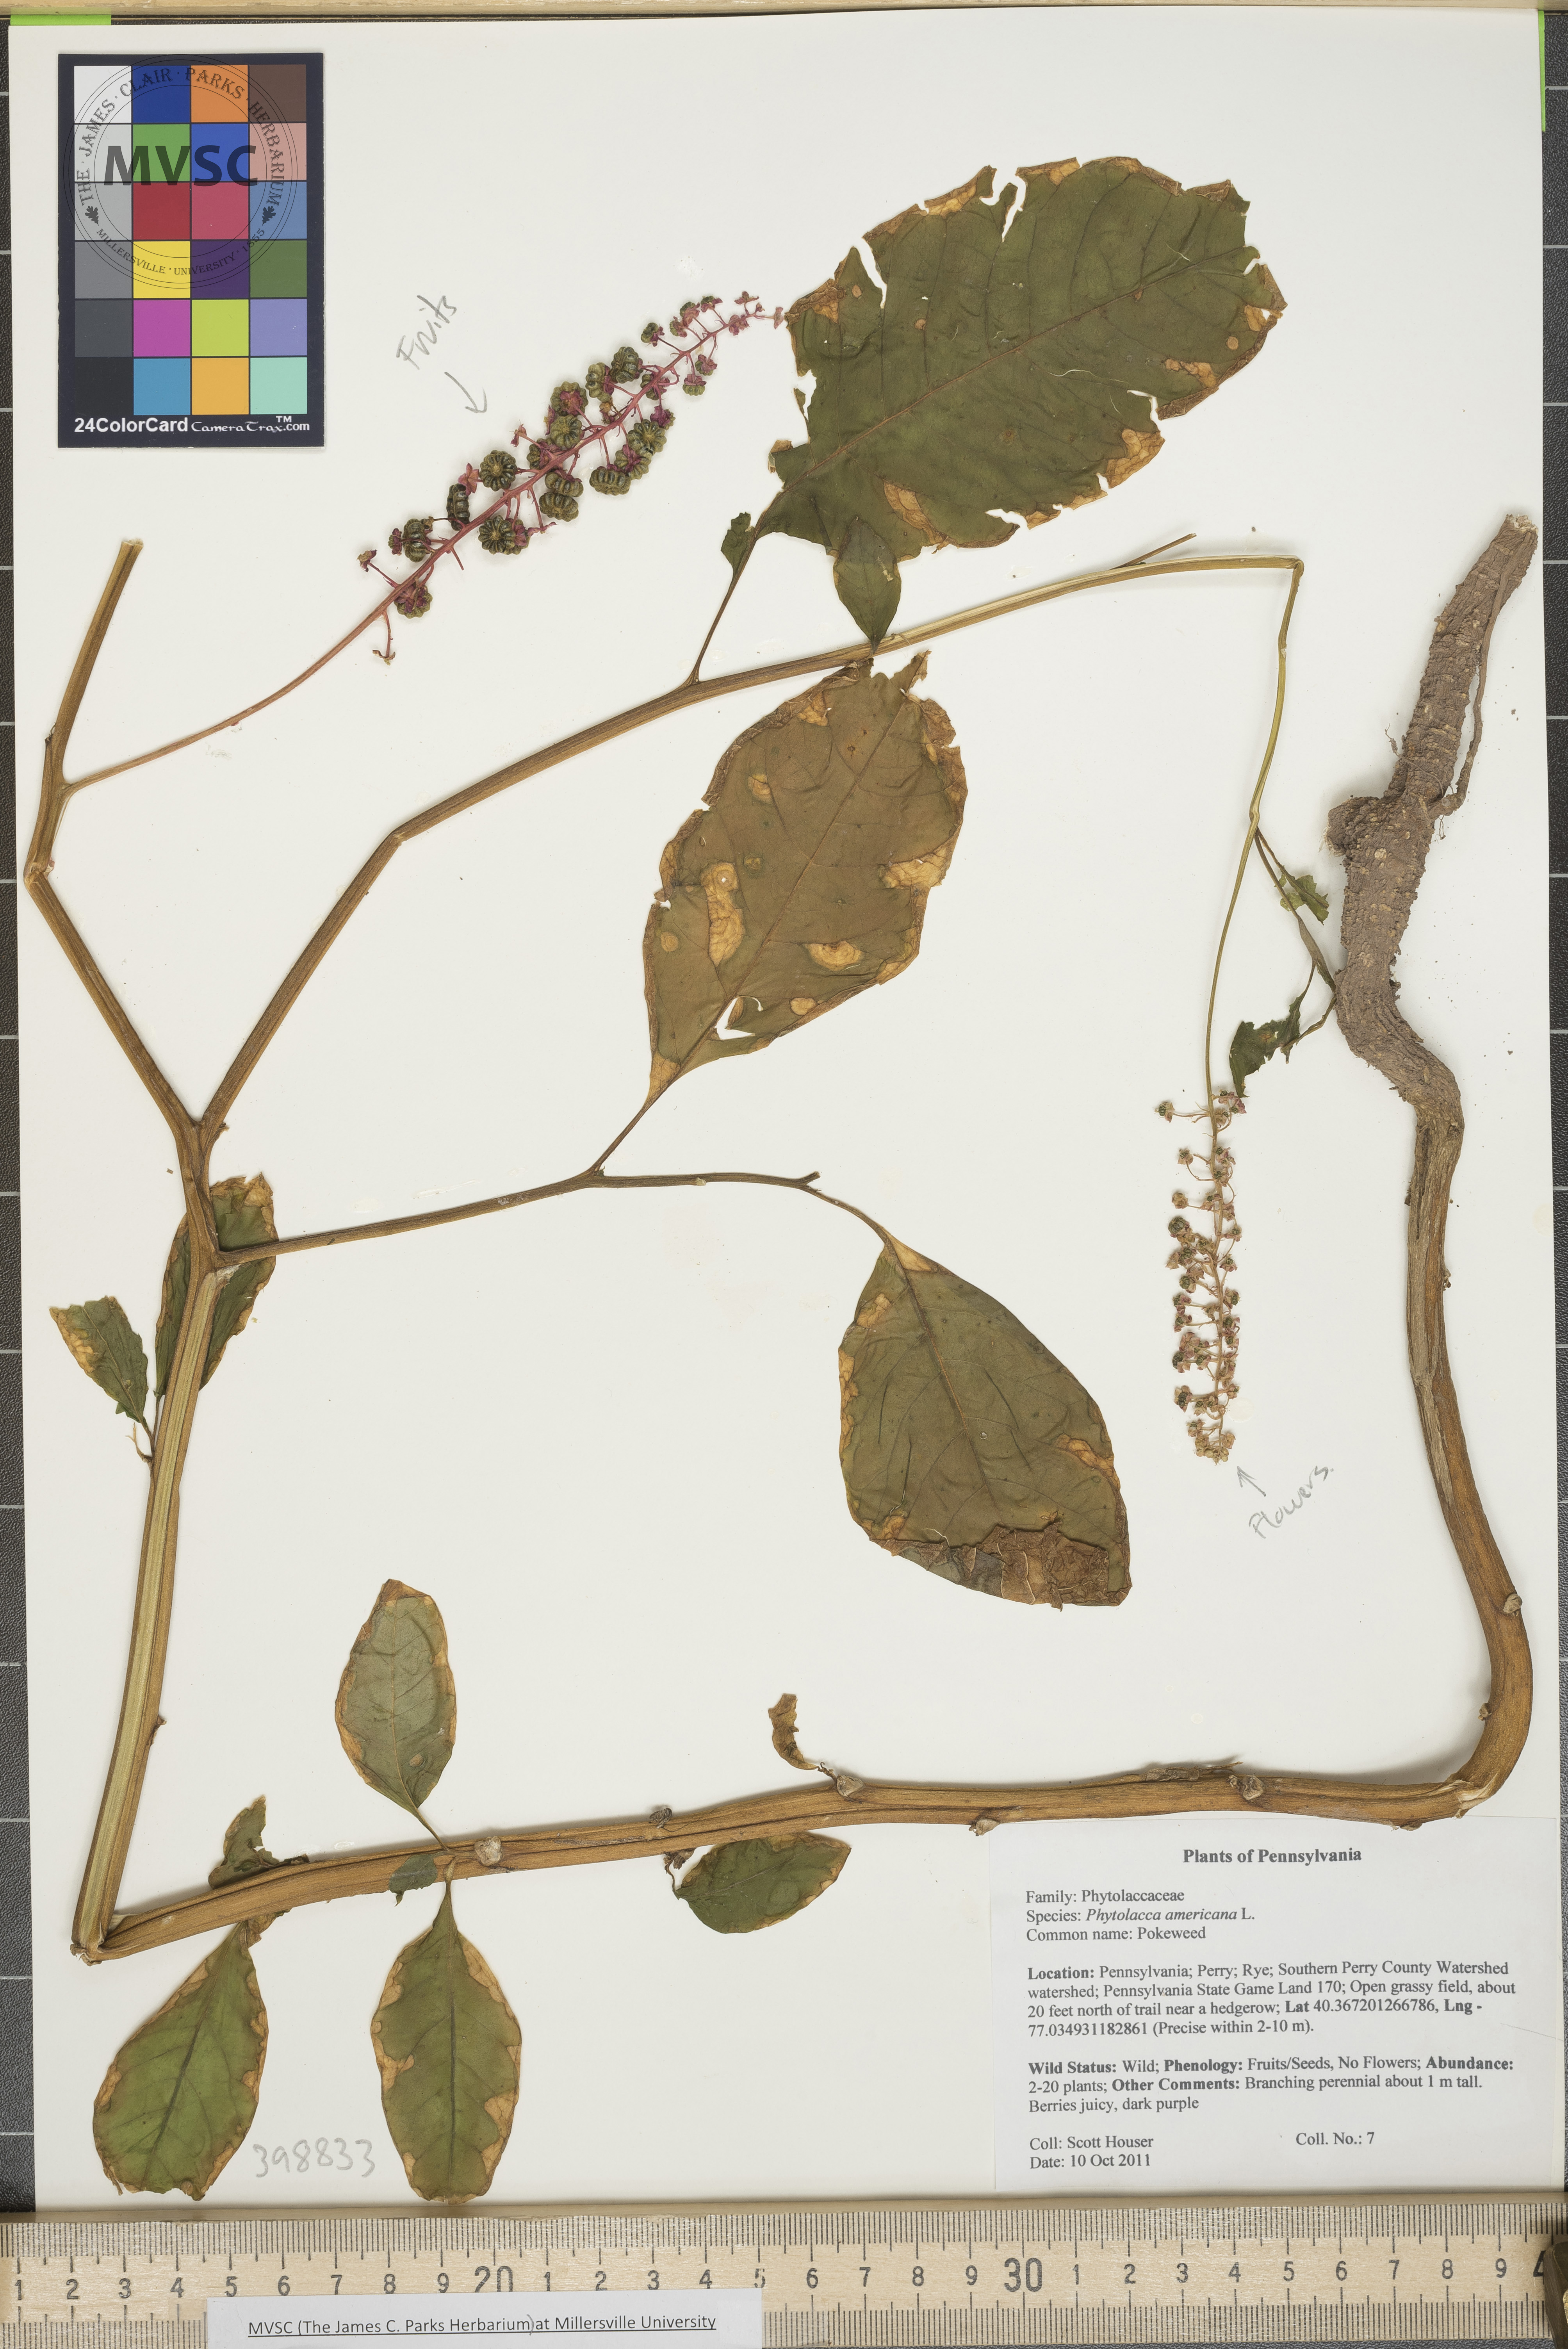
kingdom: Plantae
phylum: Tracheophyta
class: Magnoliopsida
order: Caryophyllales
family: Phytolaccaceae
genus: Phytolacca
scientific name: Phytolacca americana
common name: Pokeweed
